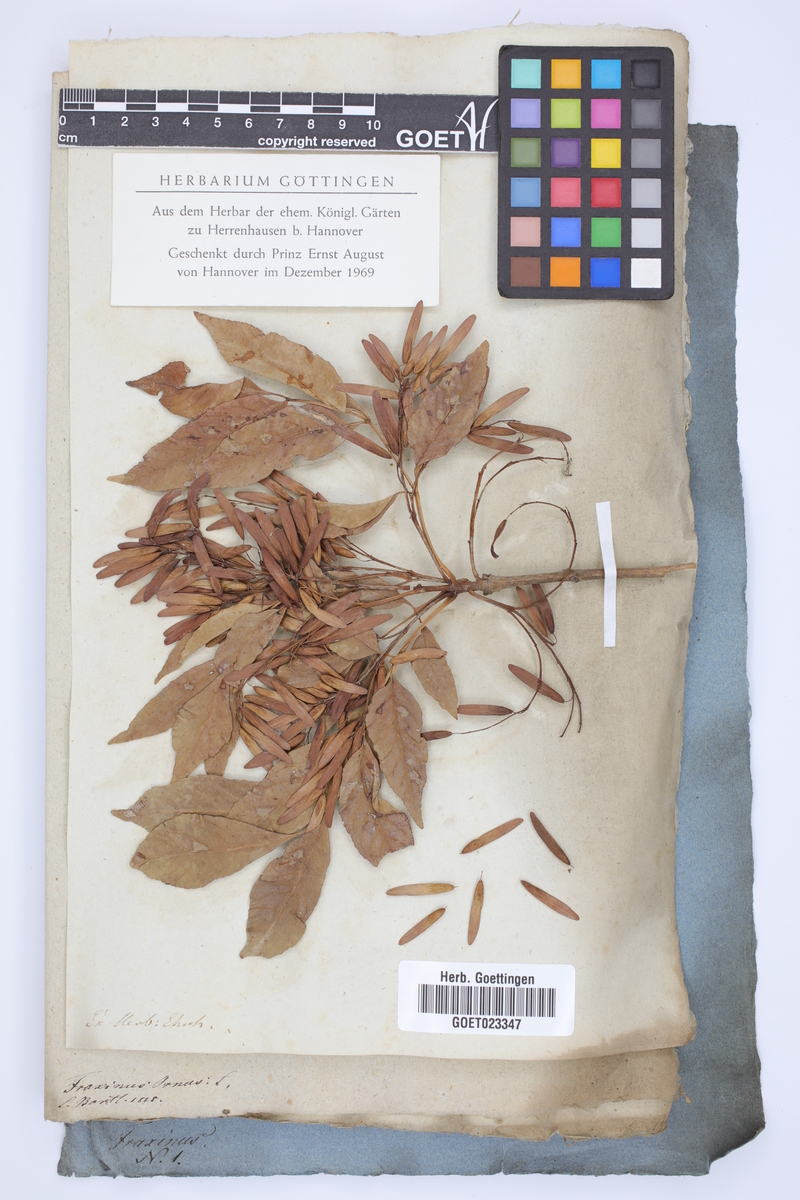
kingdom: Plantae
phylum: Tracheophyta
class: Magnoliopsida
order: Lamiales
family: Oleaceae
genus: Fraxinus
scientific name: Fraxinus ornus
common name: Manna ash
